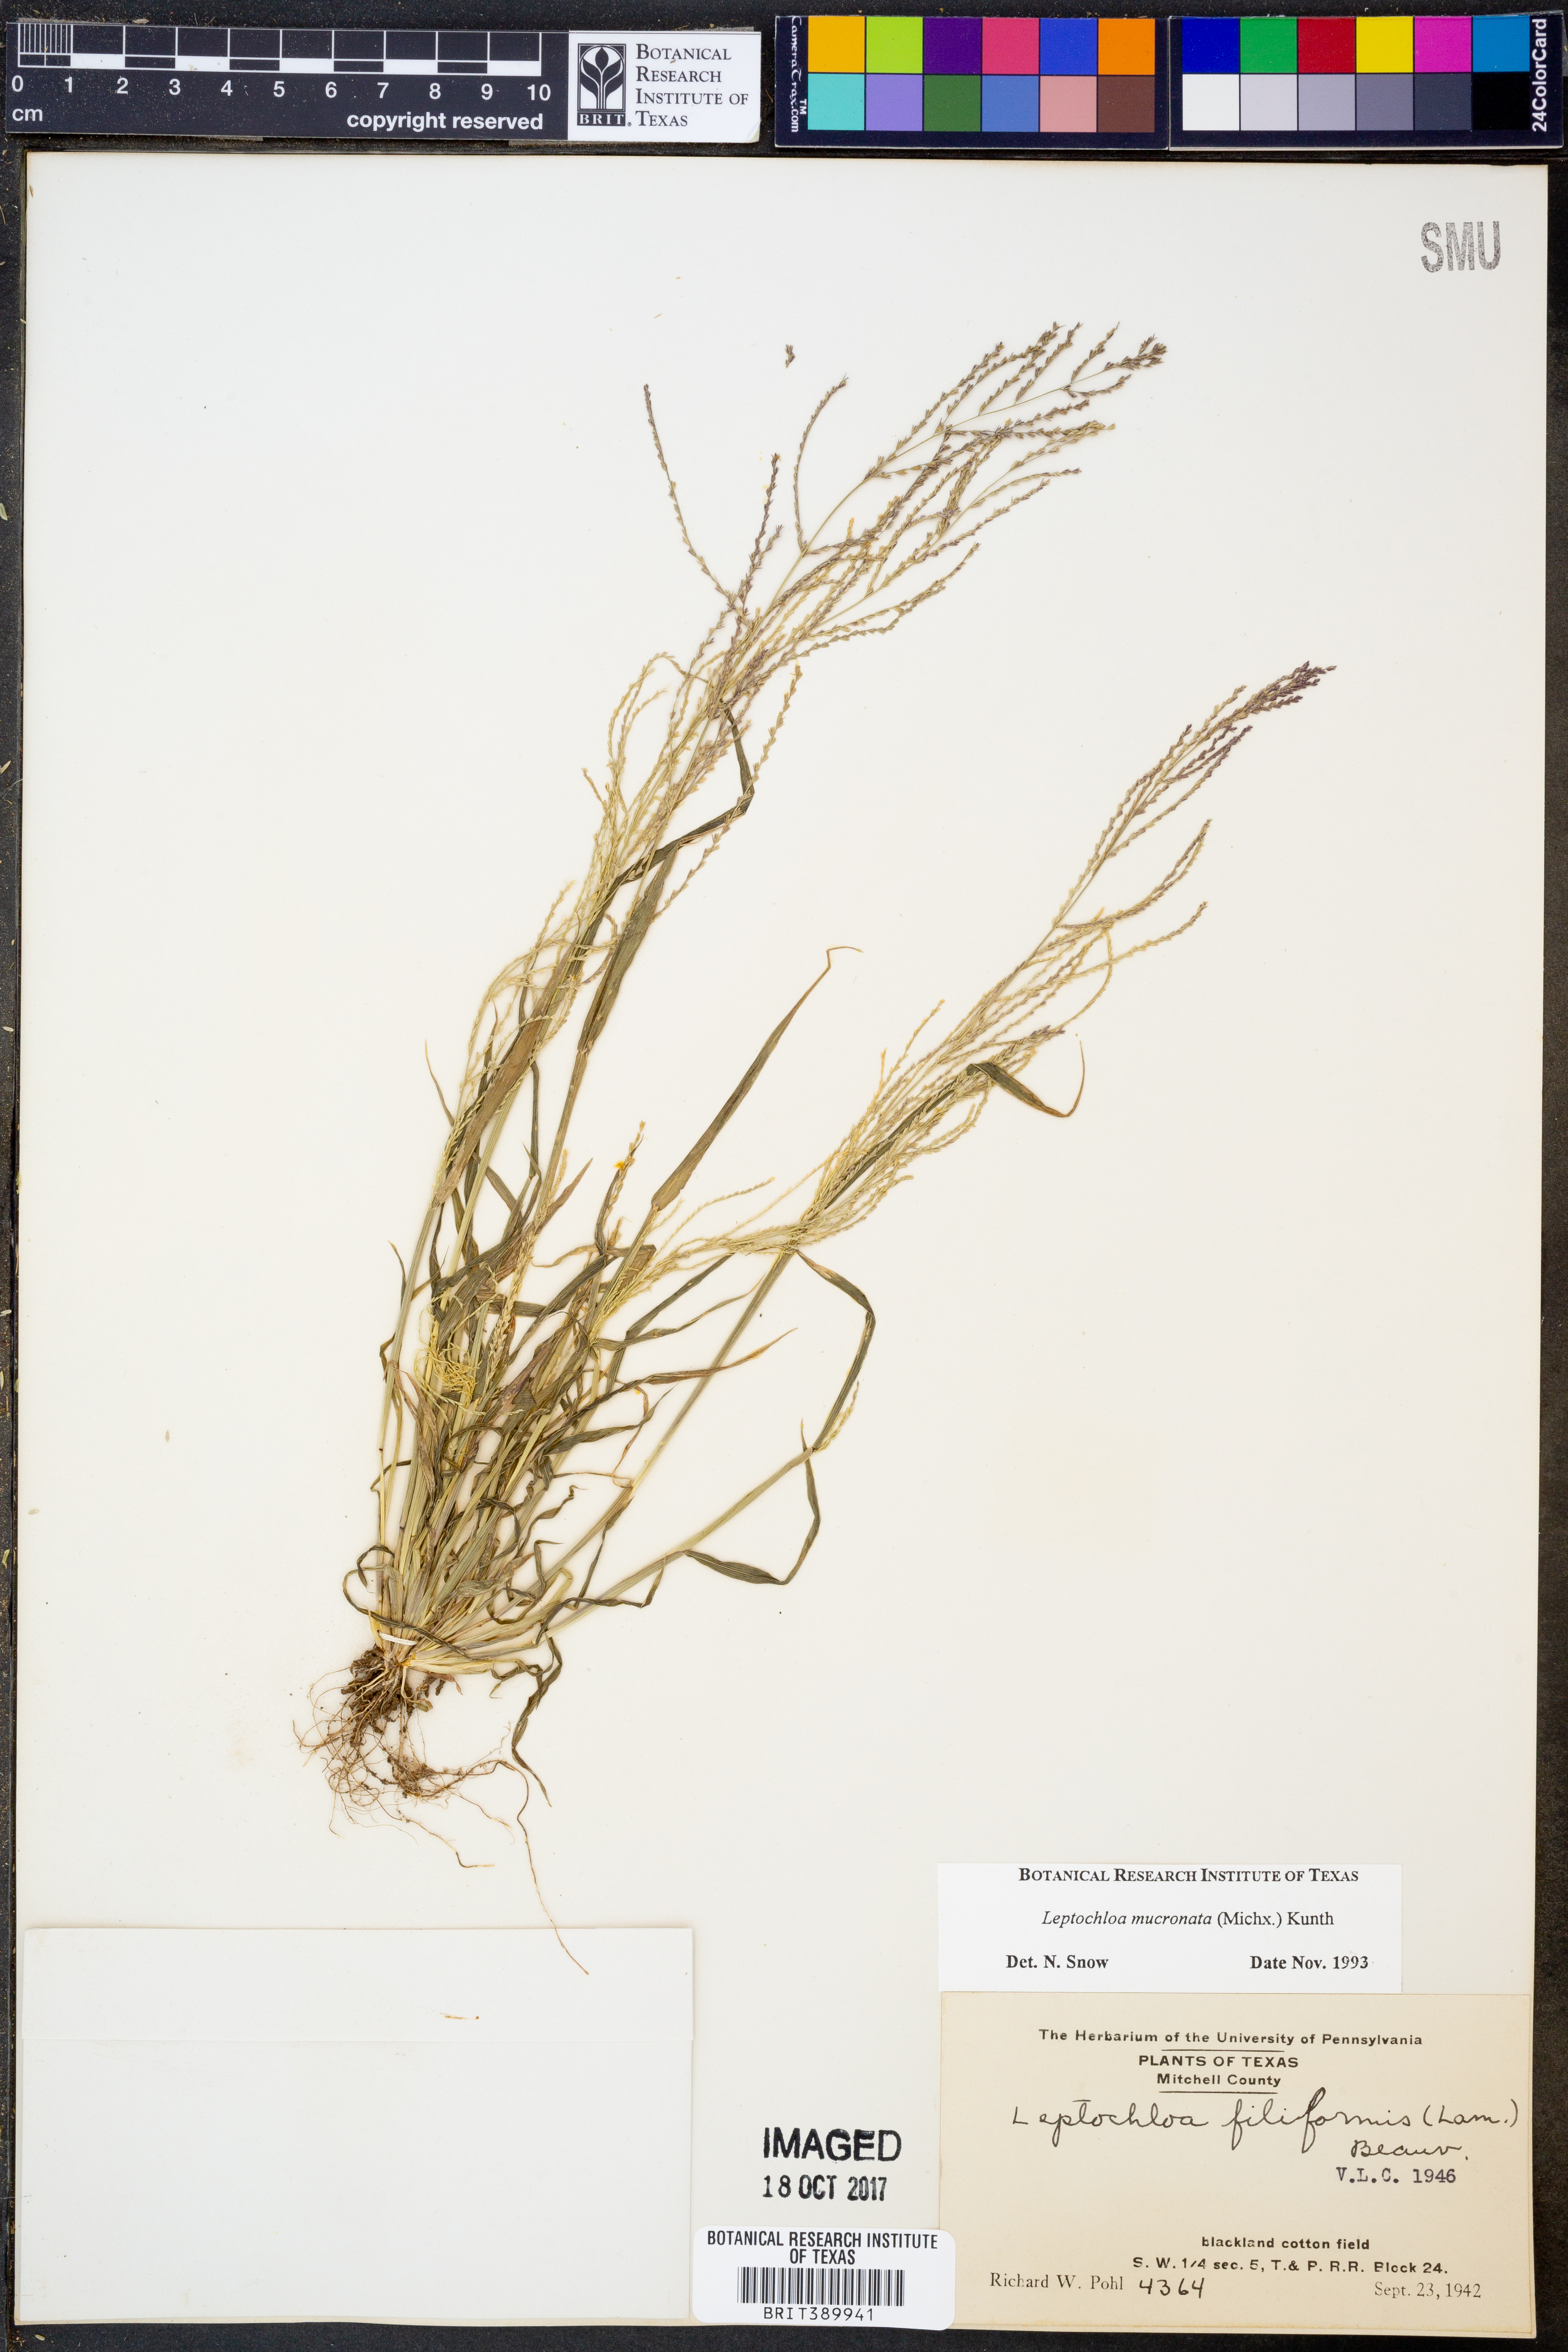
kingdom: Plantae
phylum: Tracheophyta
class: Liliopsida
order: Poales
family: Poaceae
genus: Leptochloa
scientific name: Leptochloa mucronata
